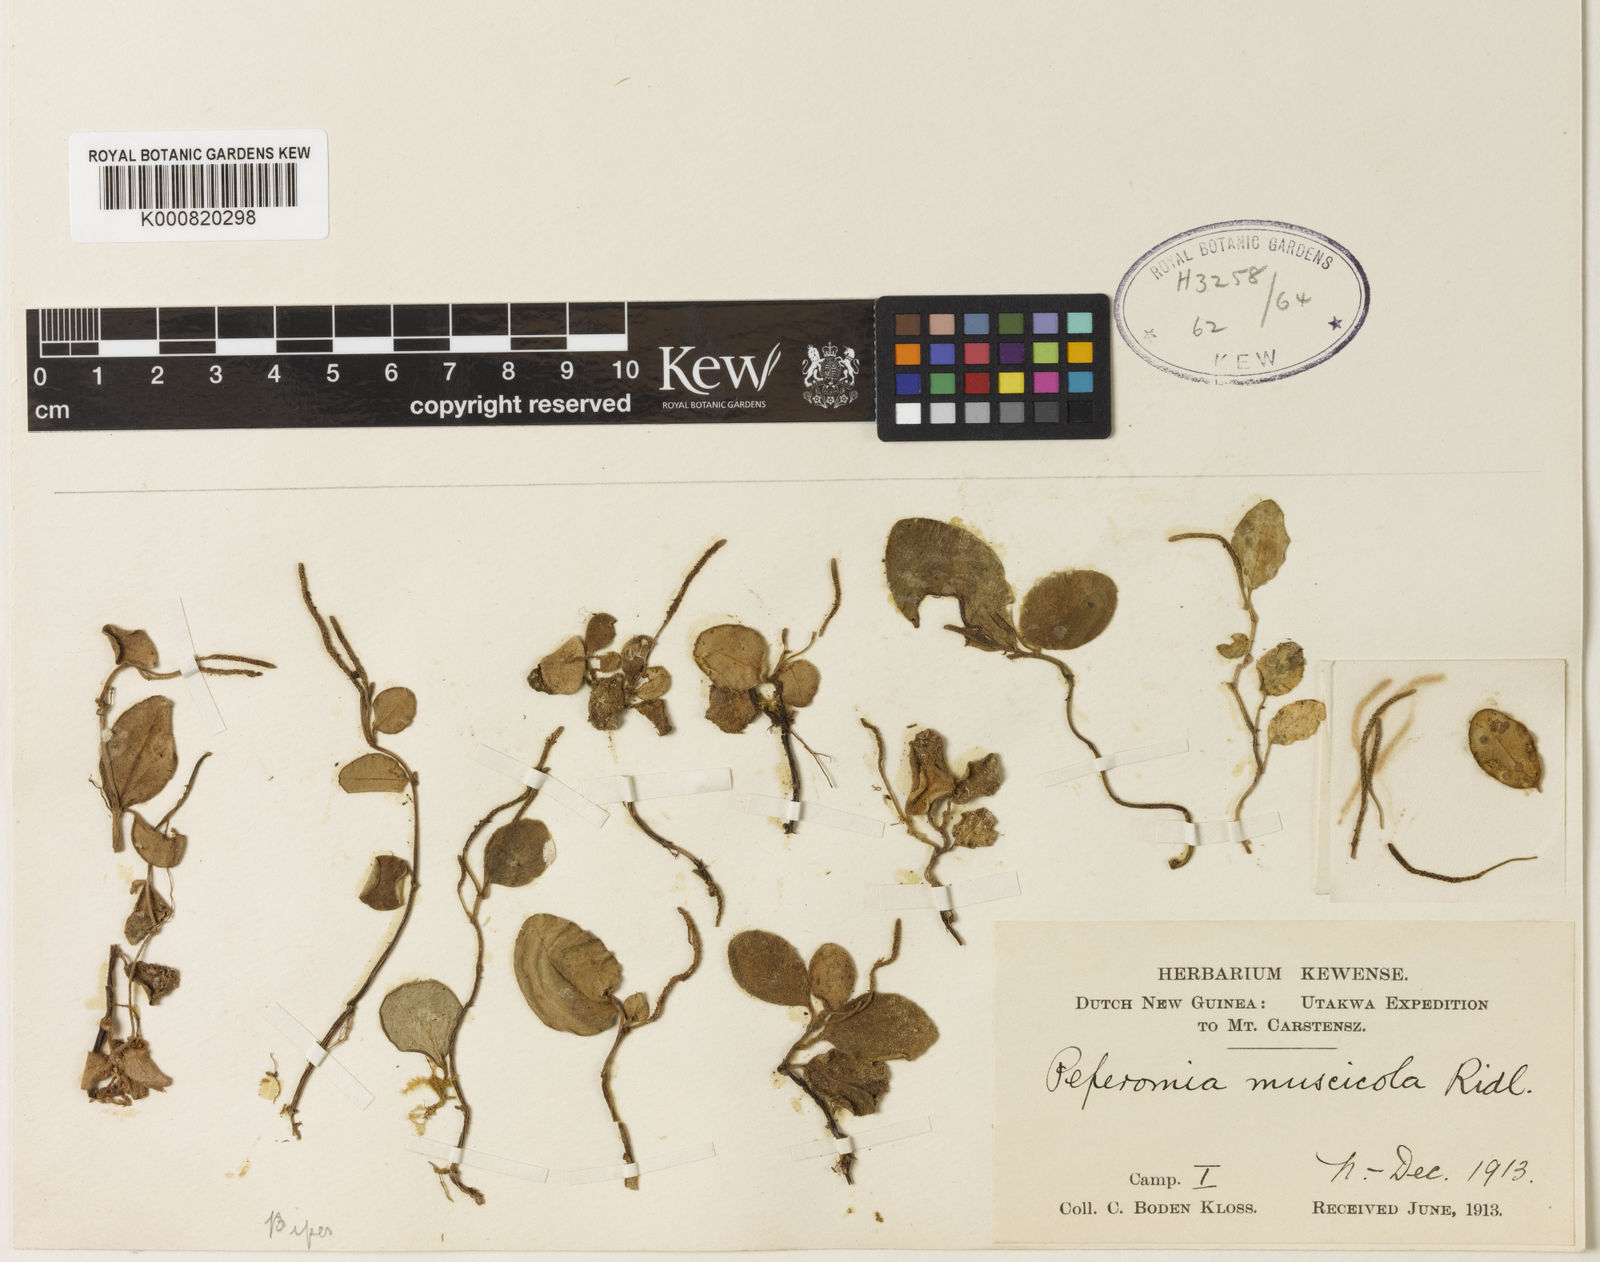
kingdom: Plantae
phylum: Tracheophyta
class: Magnoliopsida
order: Piperales
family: Piperaceae
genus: Peperomia
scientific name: Peperomia muscicola
